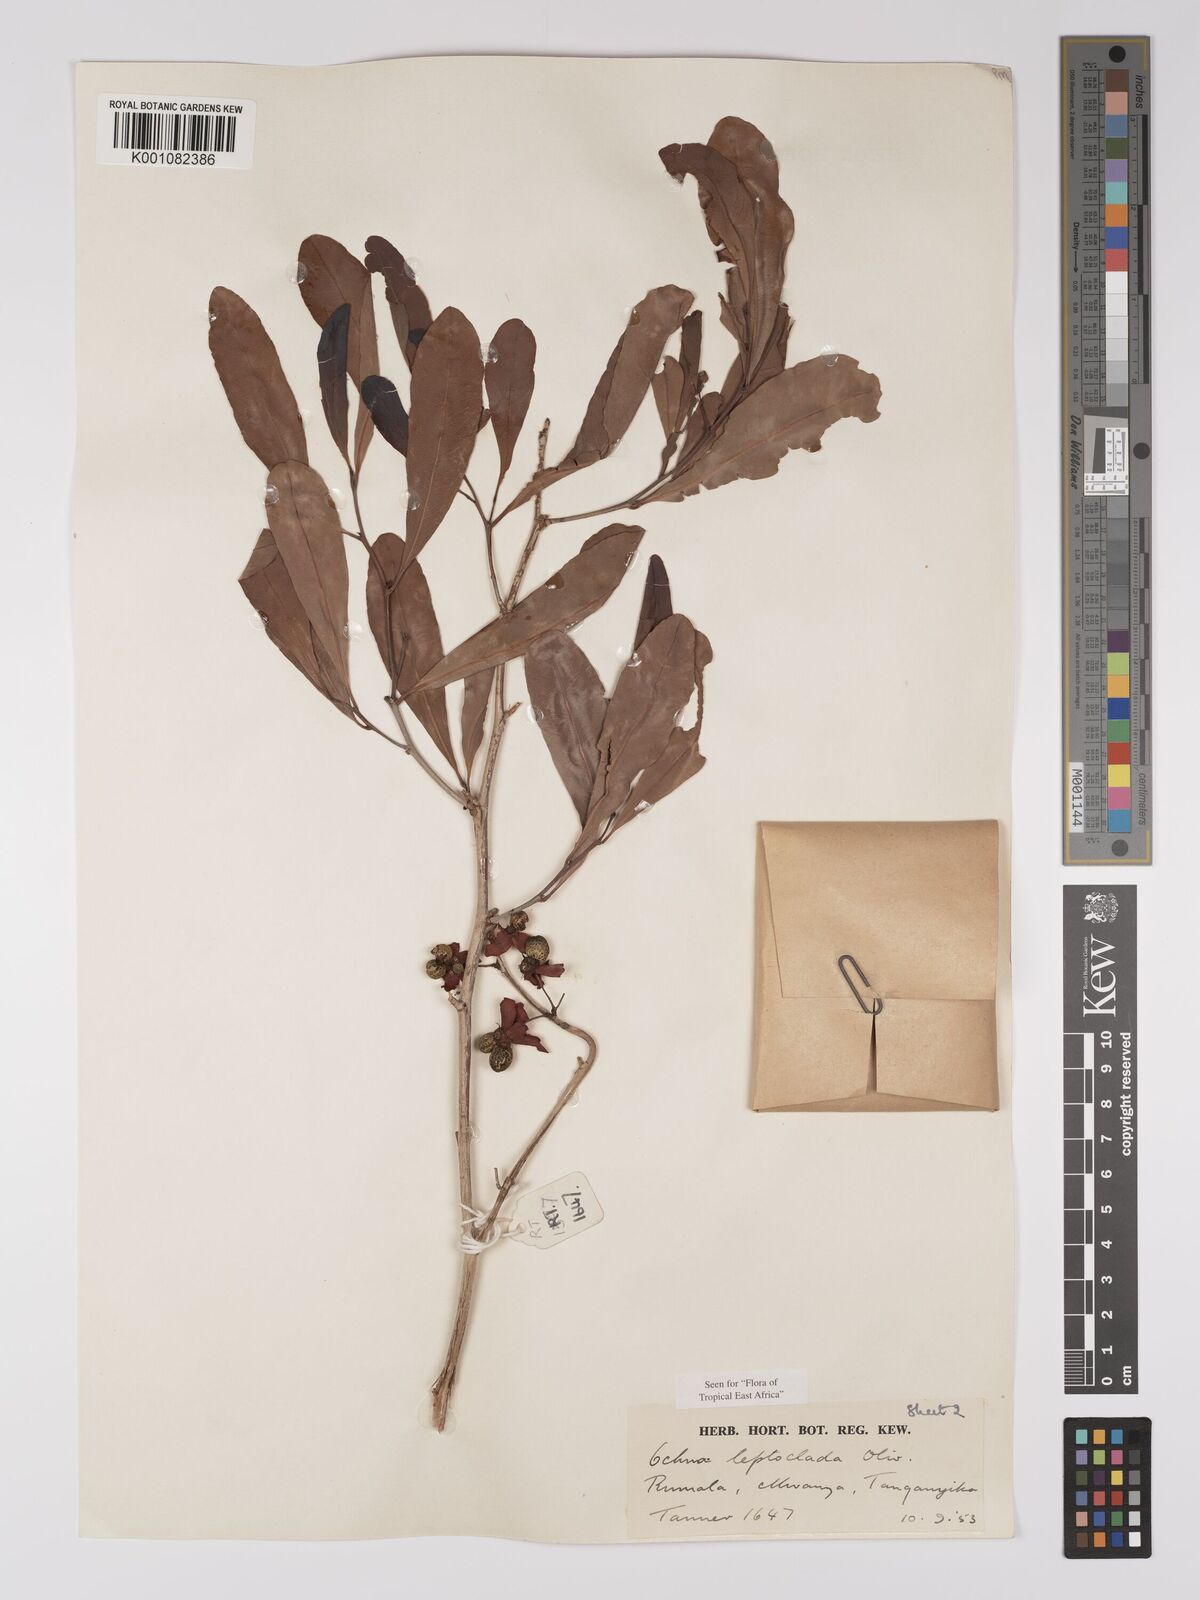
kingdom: Plantae
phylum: Tracheophyta
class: Magnoliopsida
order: Malpighiales
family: Ochnaceae
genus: Ochna
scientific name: Ochna leptoclada
